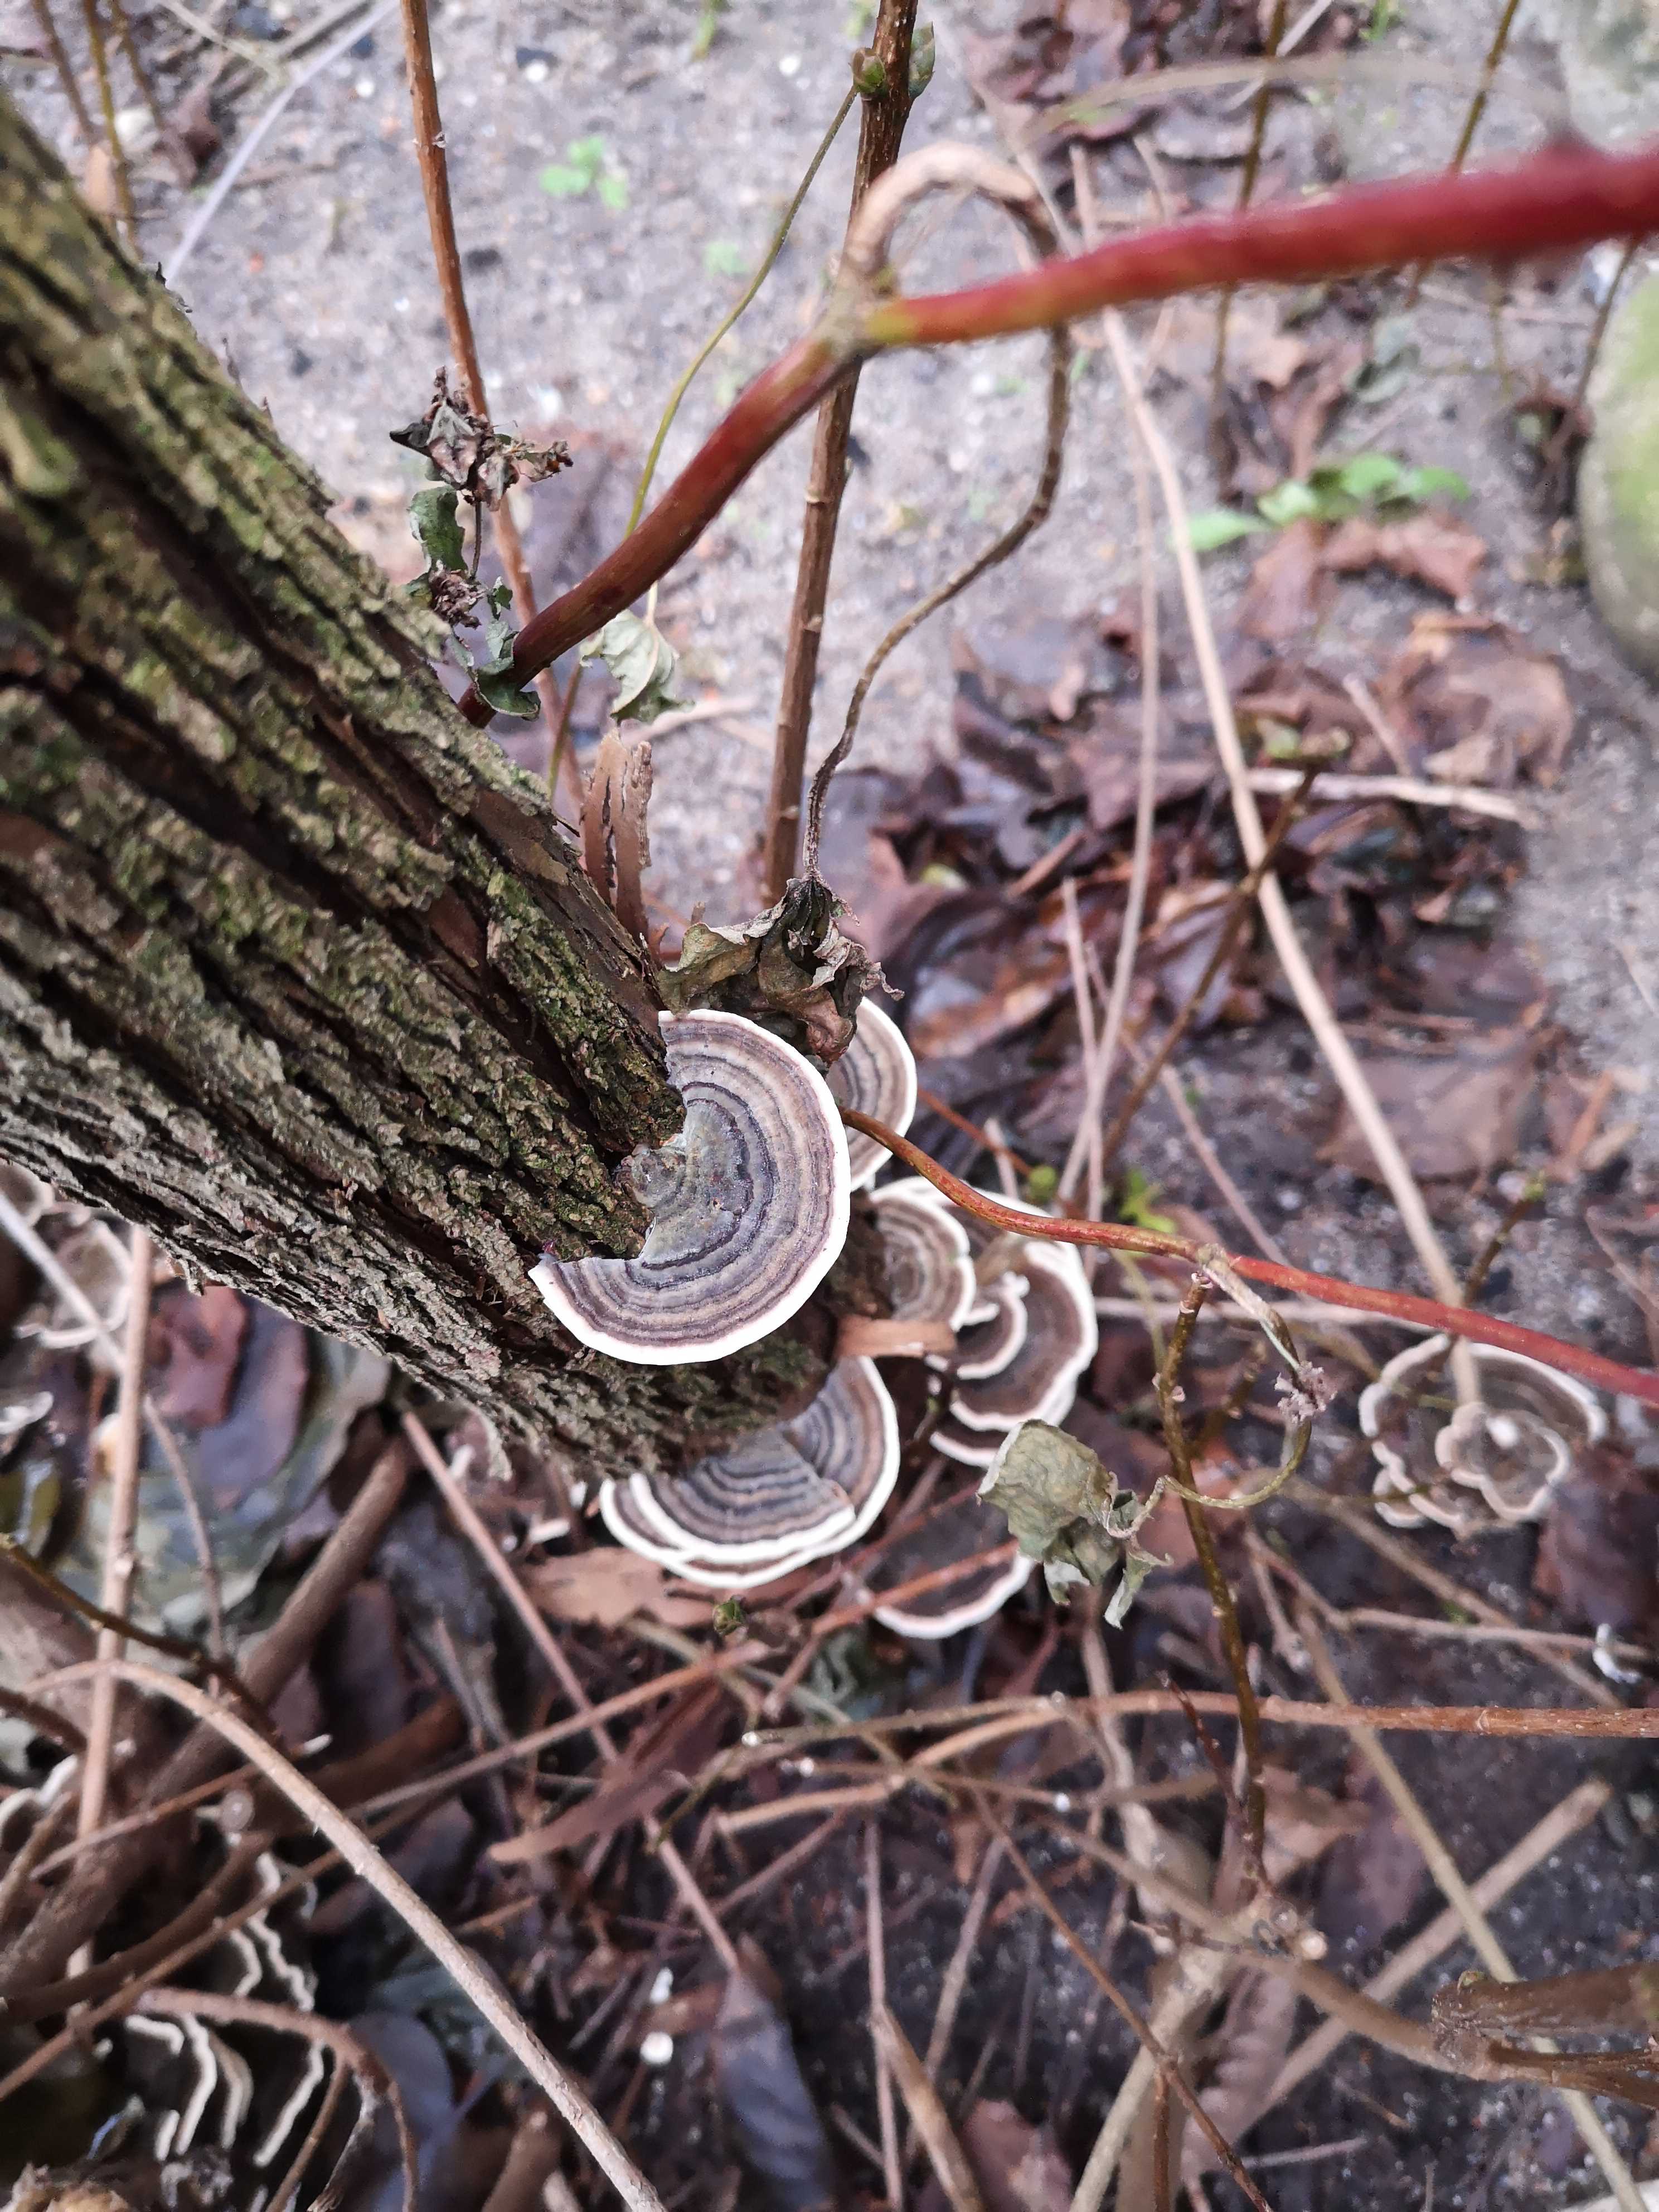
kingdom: Fungi
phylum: Basidiomycota
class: Agaricomycetes
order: Polyporales
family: Polyporaceae
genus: Trametes
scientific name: Trametes versicolor
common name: broget læderporesvamp
